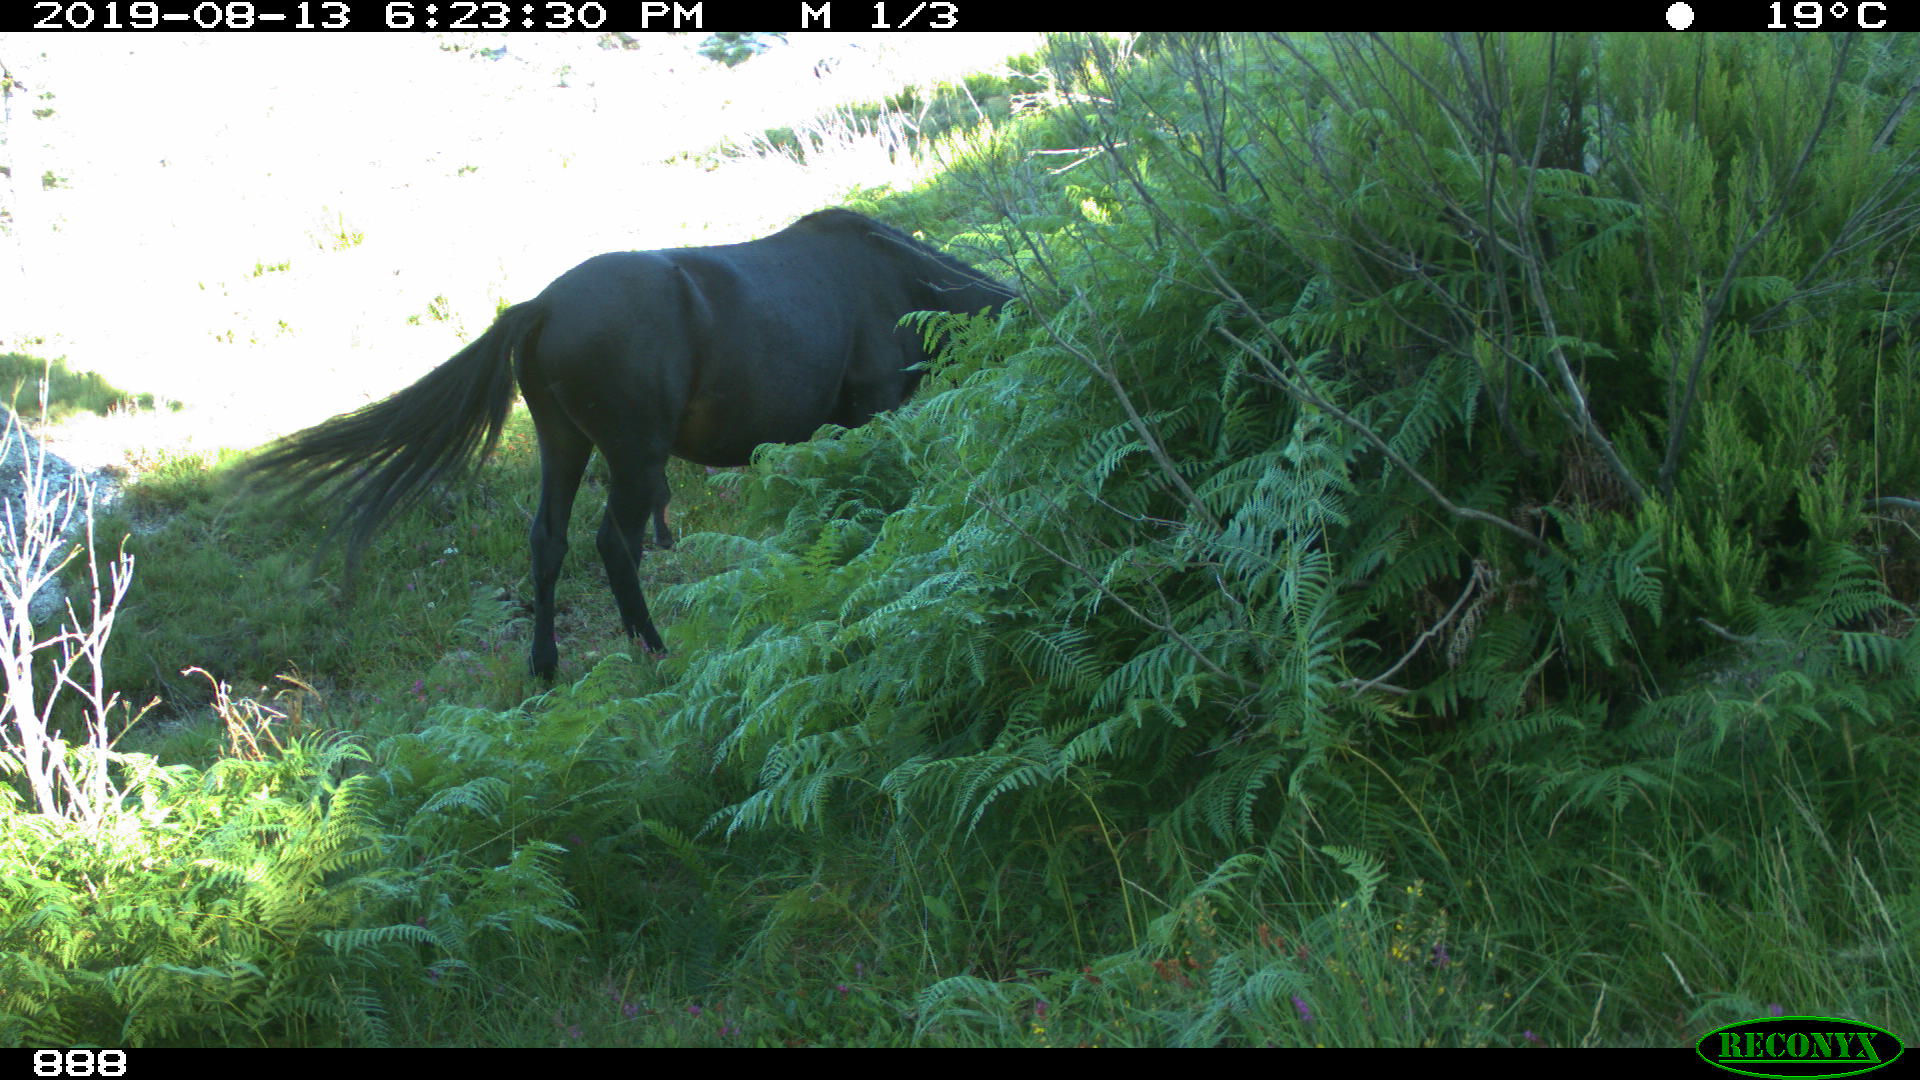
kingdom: Animalia
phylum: Chordata
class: Mammalia
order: Perissodactyla
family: Equidae
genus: Equus
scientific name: Equus caballus
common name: Horse
